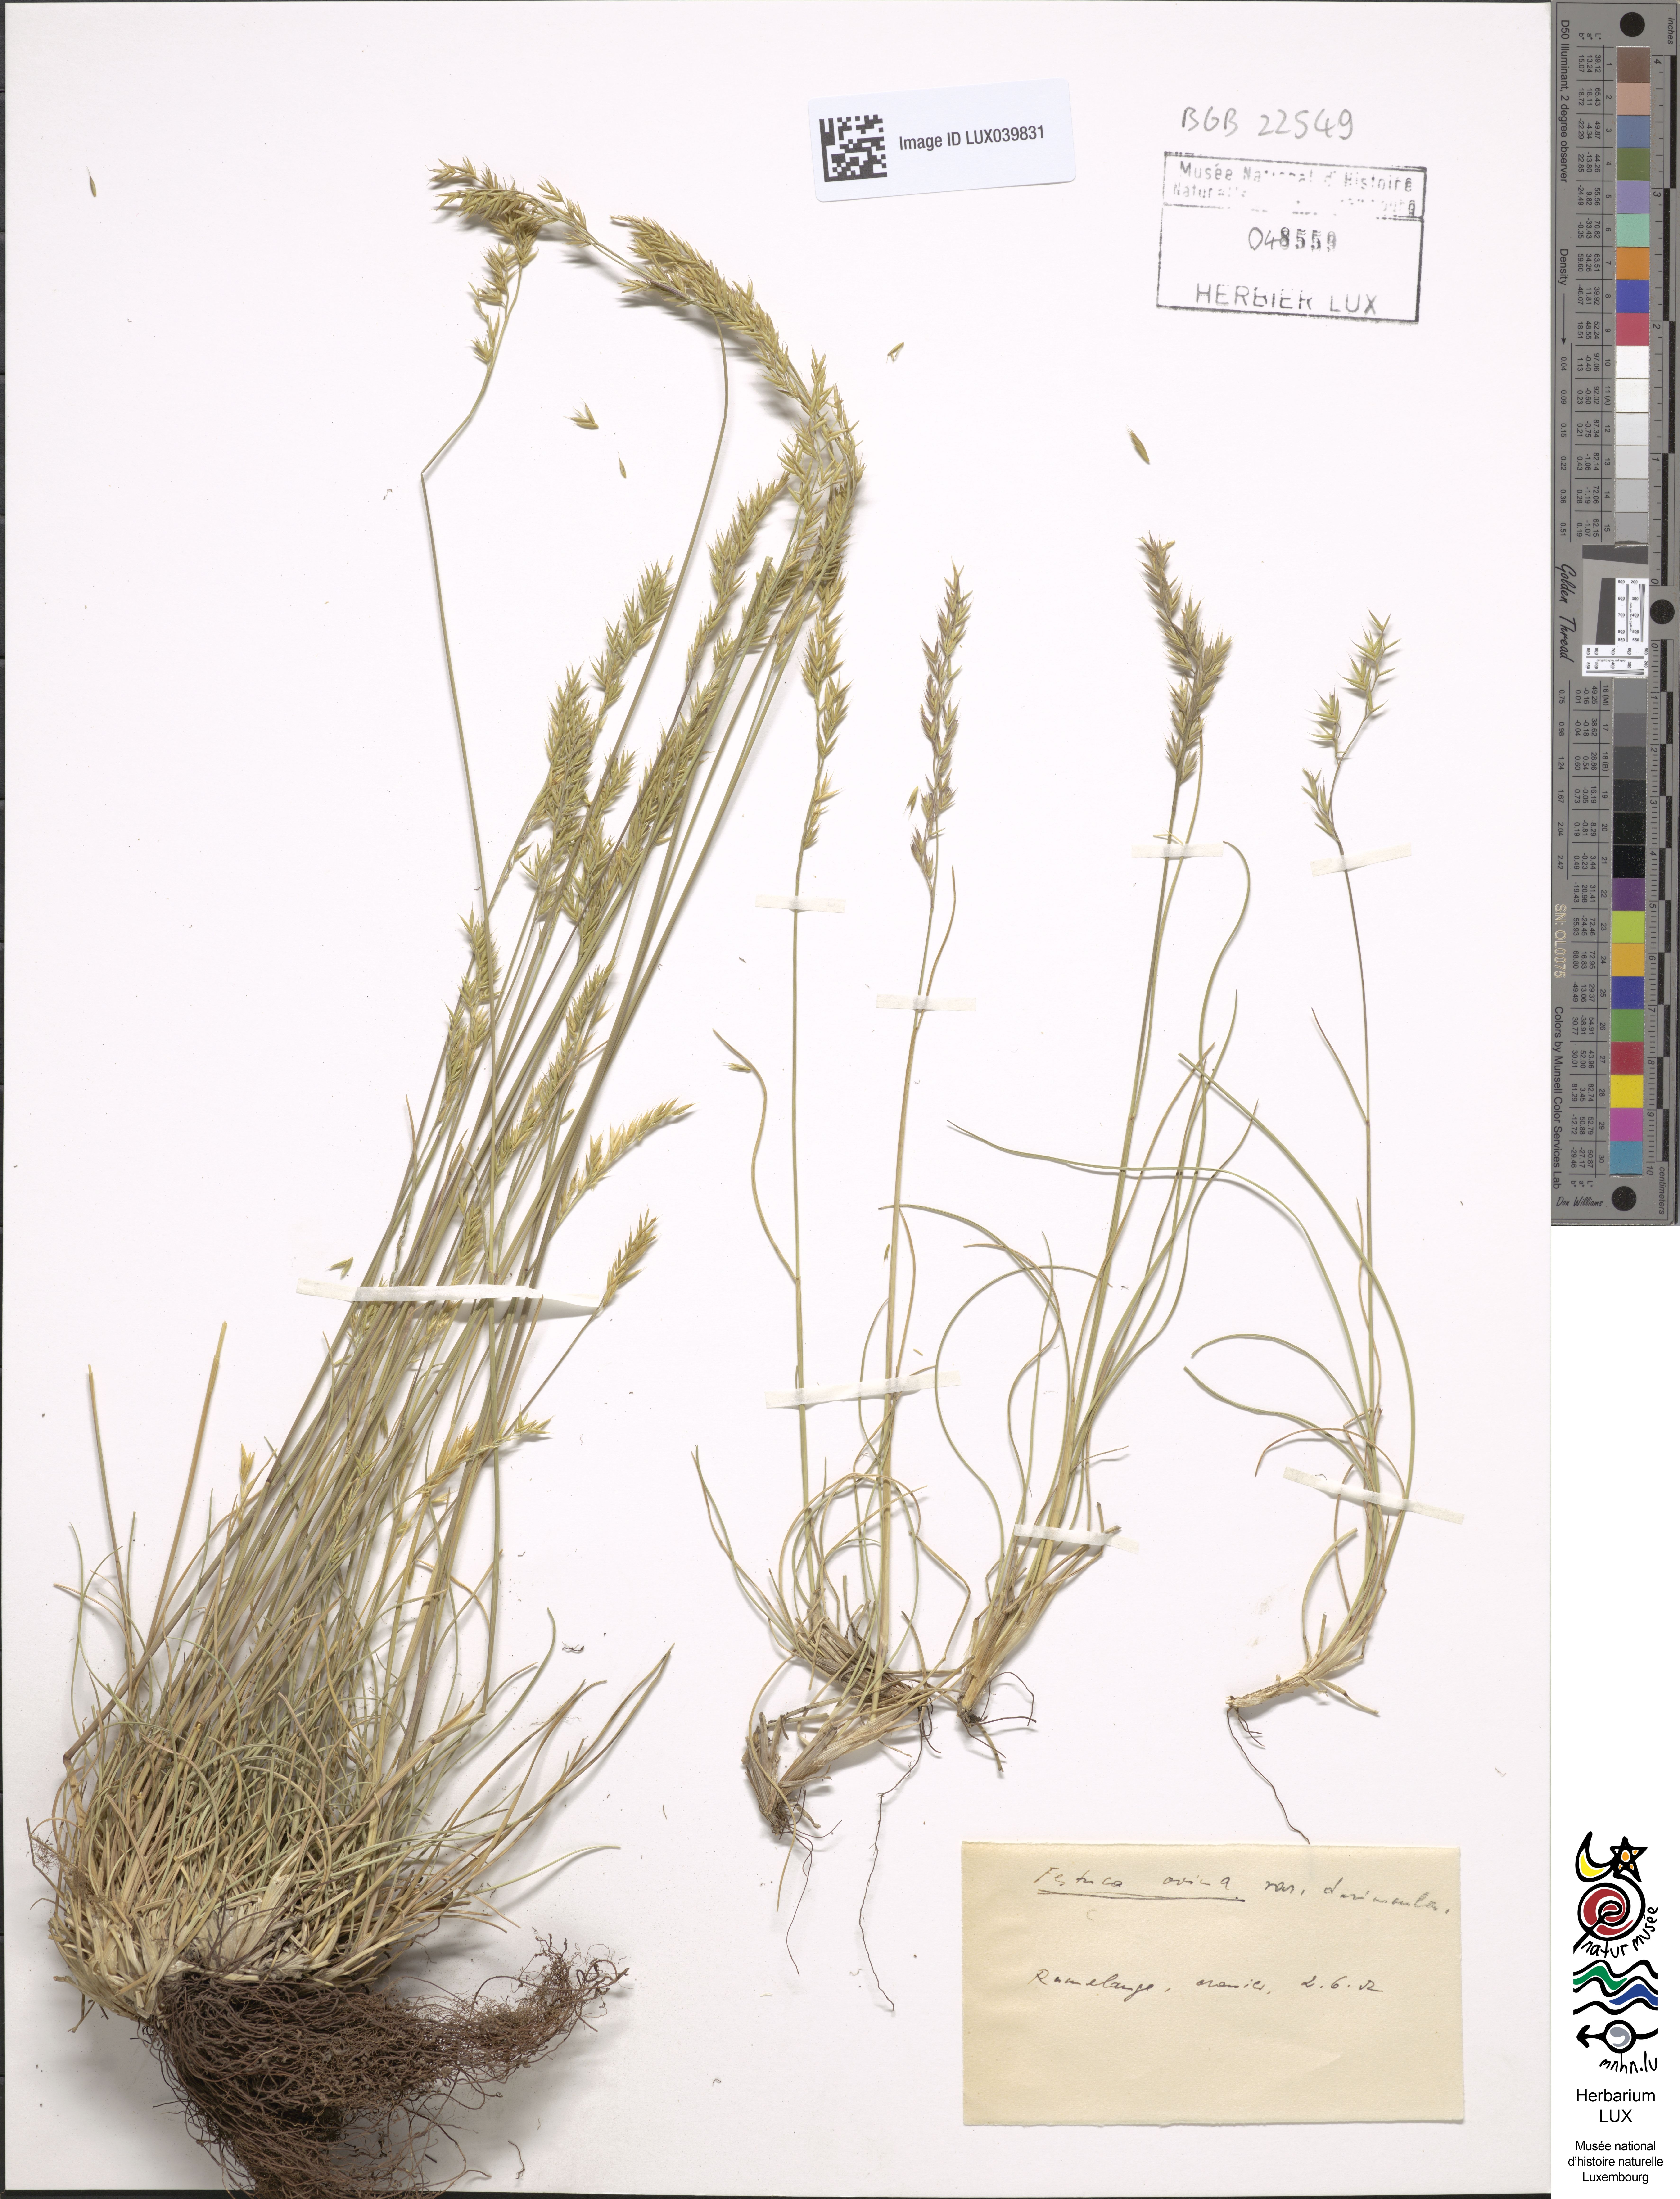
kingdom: Plantae
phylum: Tracheophyta
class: Liliopsida
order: Poales
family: Poaceae
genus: Festuca
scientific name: Festuca rubra
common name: Red fescue
